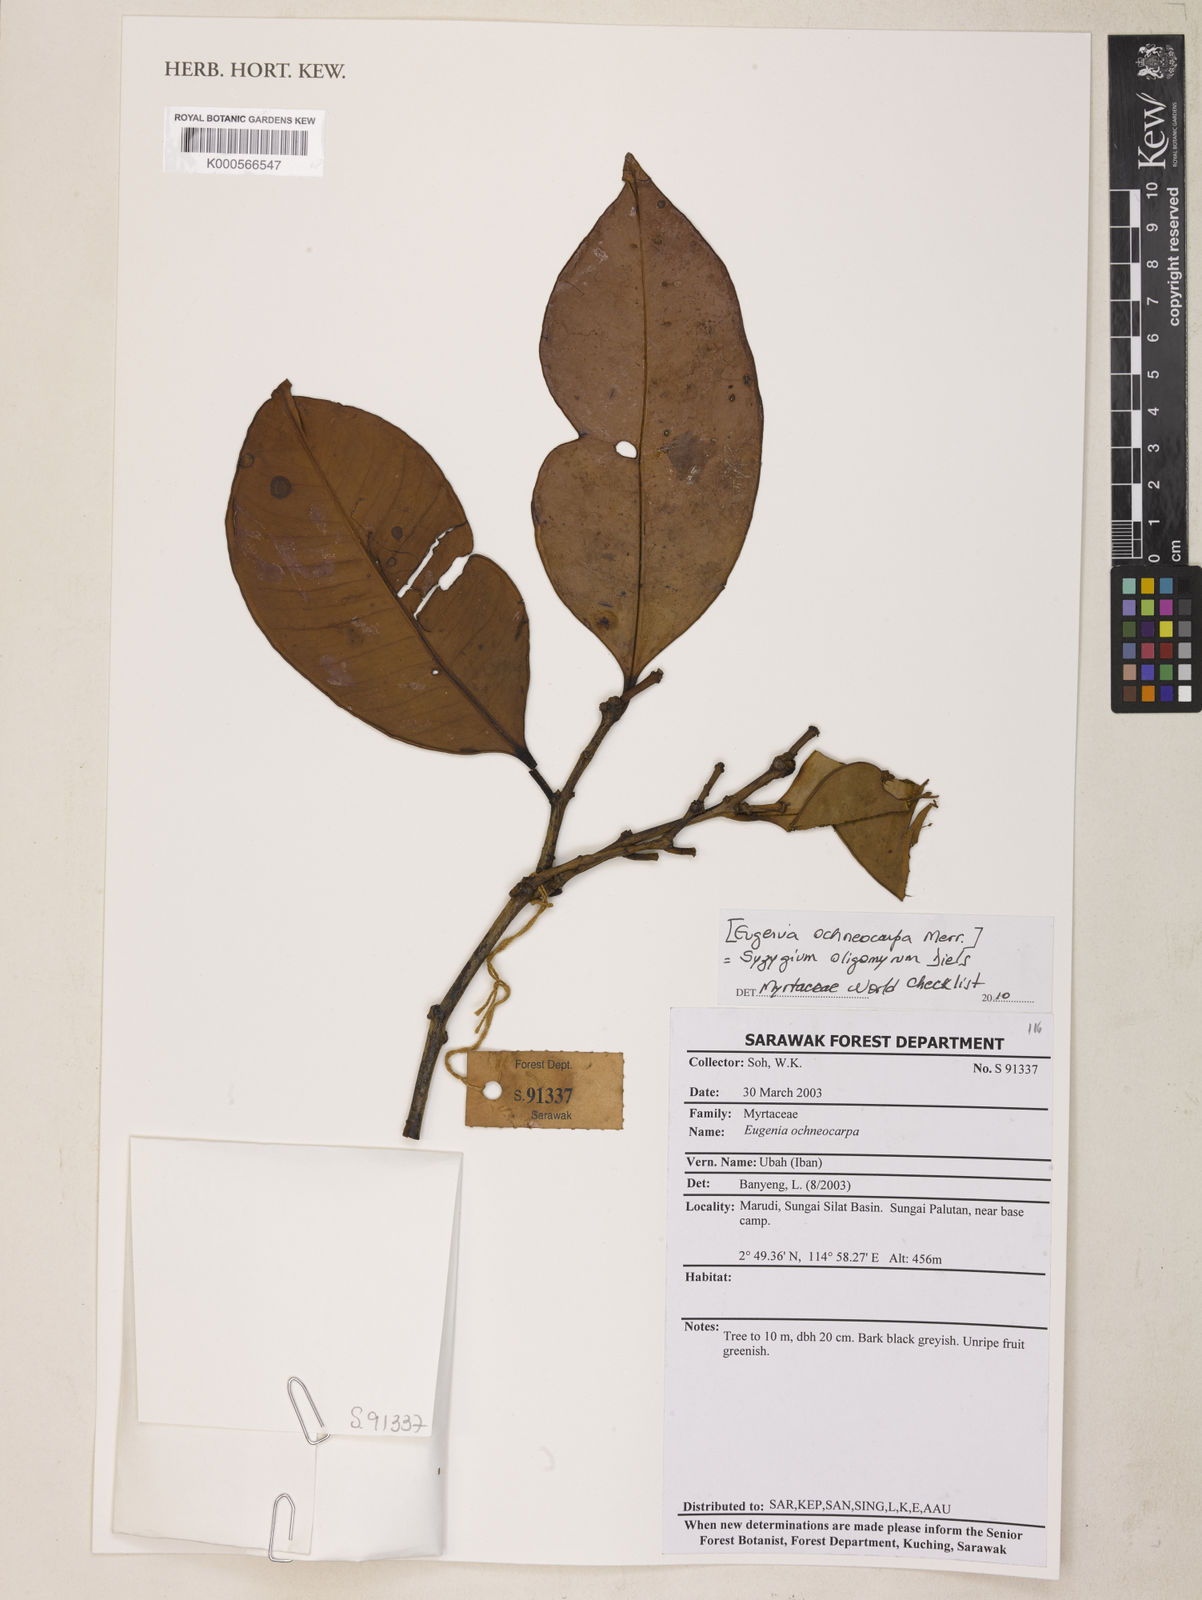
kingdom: Plantae
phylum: Tracheophyta
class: Magnoliopsida
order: Myrtales
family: Myrtaceae
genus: Syzygium
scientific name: Syzygium oligomyrum
